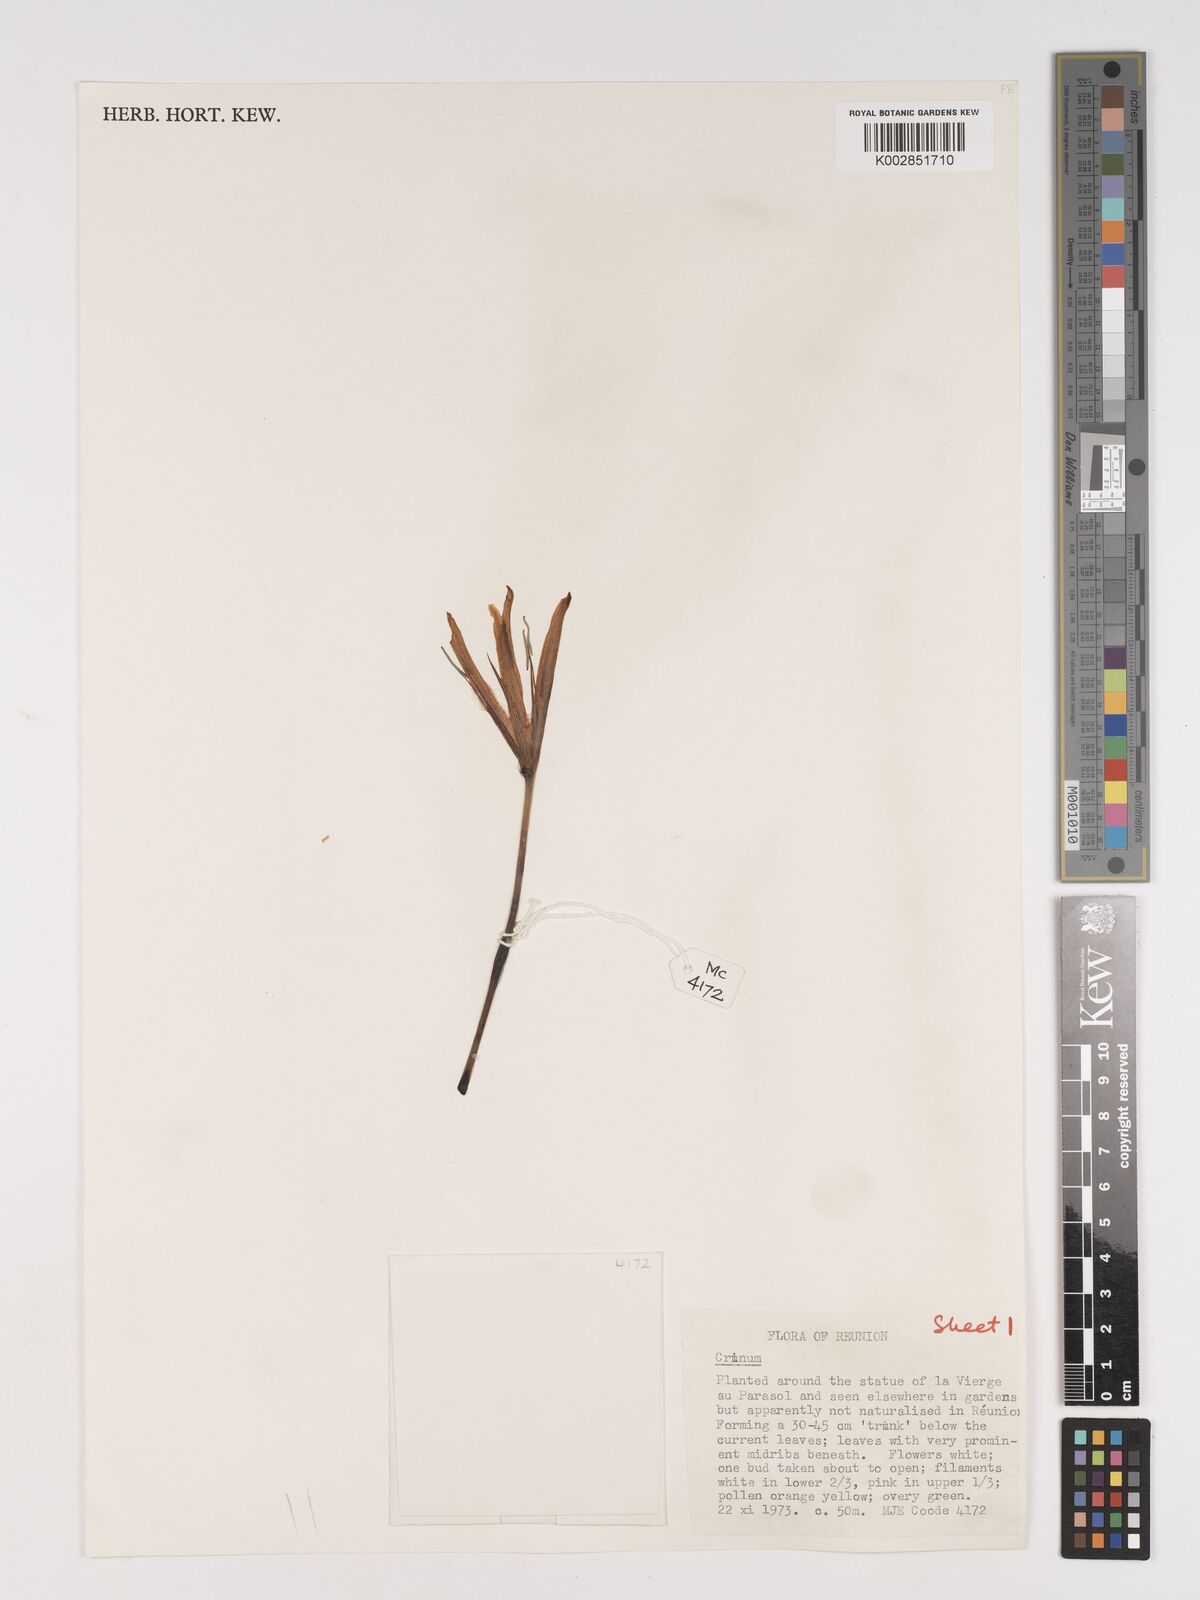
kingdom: Plantae
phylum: Tracheophyta
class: Liliopsida
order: Asparagales
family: Amaryllidaceae
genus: Crinum
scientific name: Crinum
